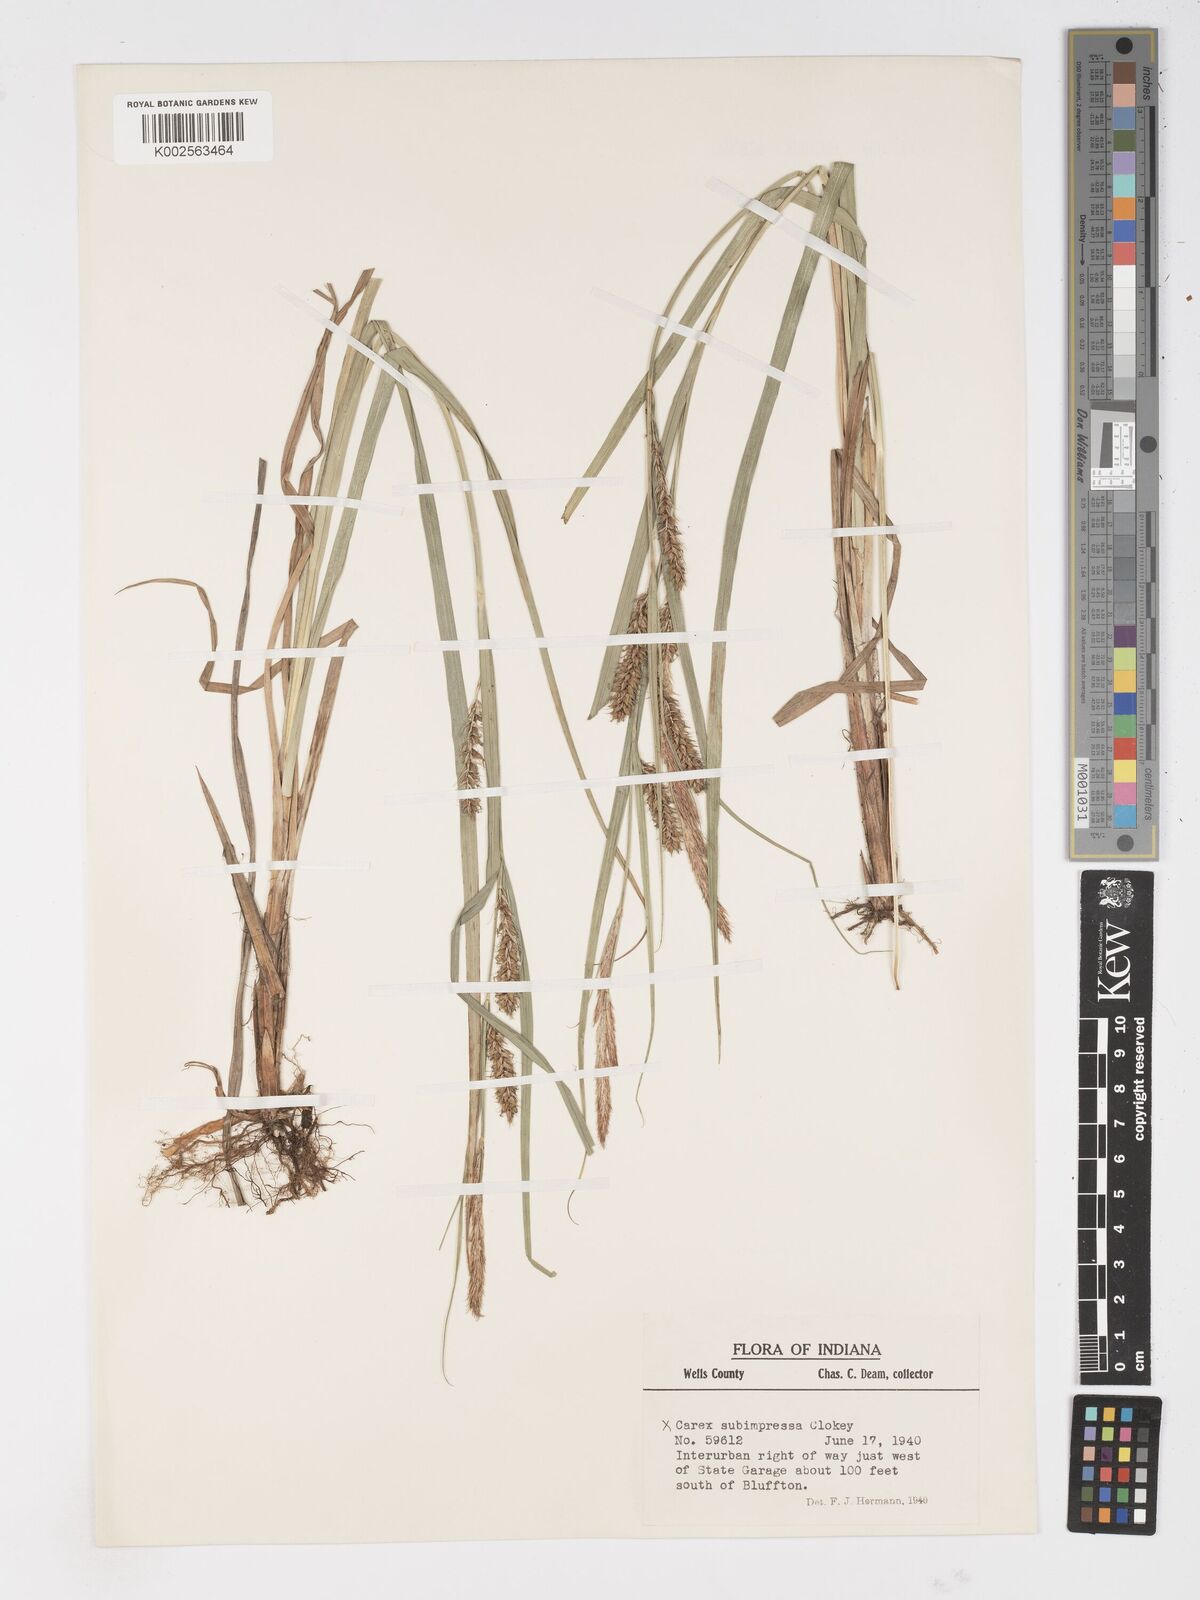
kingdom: Plantae
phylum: Tracheophyta
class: Liliopsida
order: Poales
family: Cyperaceae
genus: Carex
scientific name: Carex subimpressa
